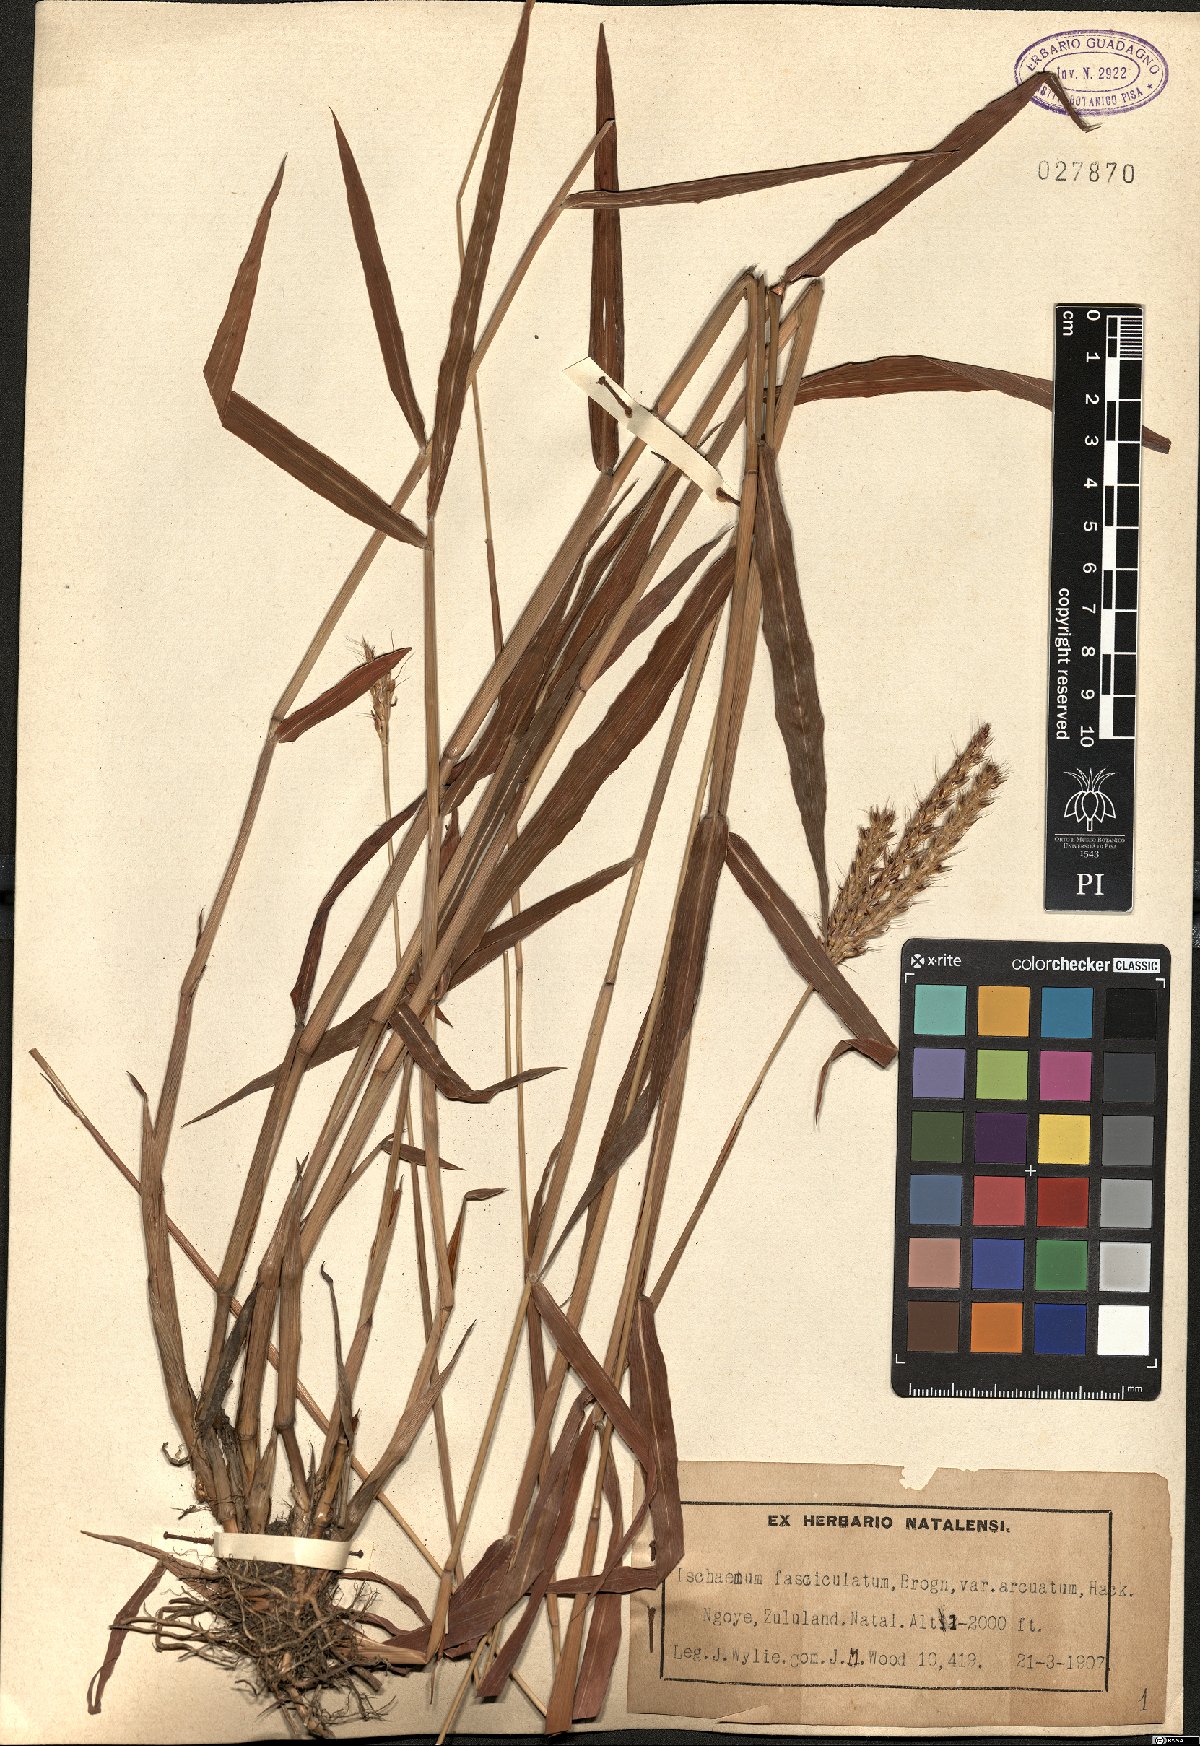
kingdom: Plantae
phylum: Tracheophyta
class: Liliopsida
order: Poales
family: Poaceae
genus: Ischaemum
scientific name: Ischaemum polystachyum
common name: Paddle grass
